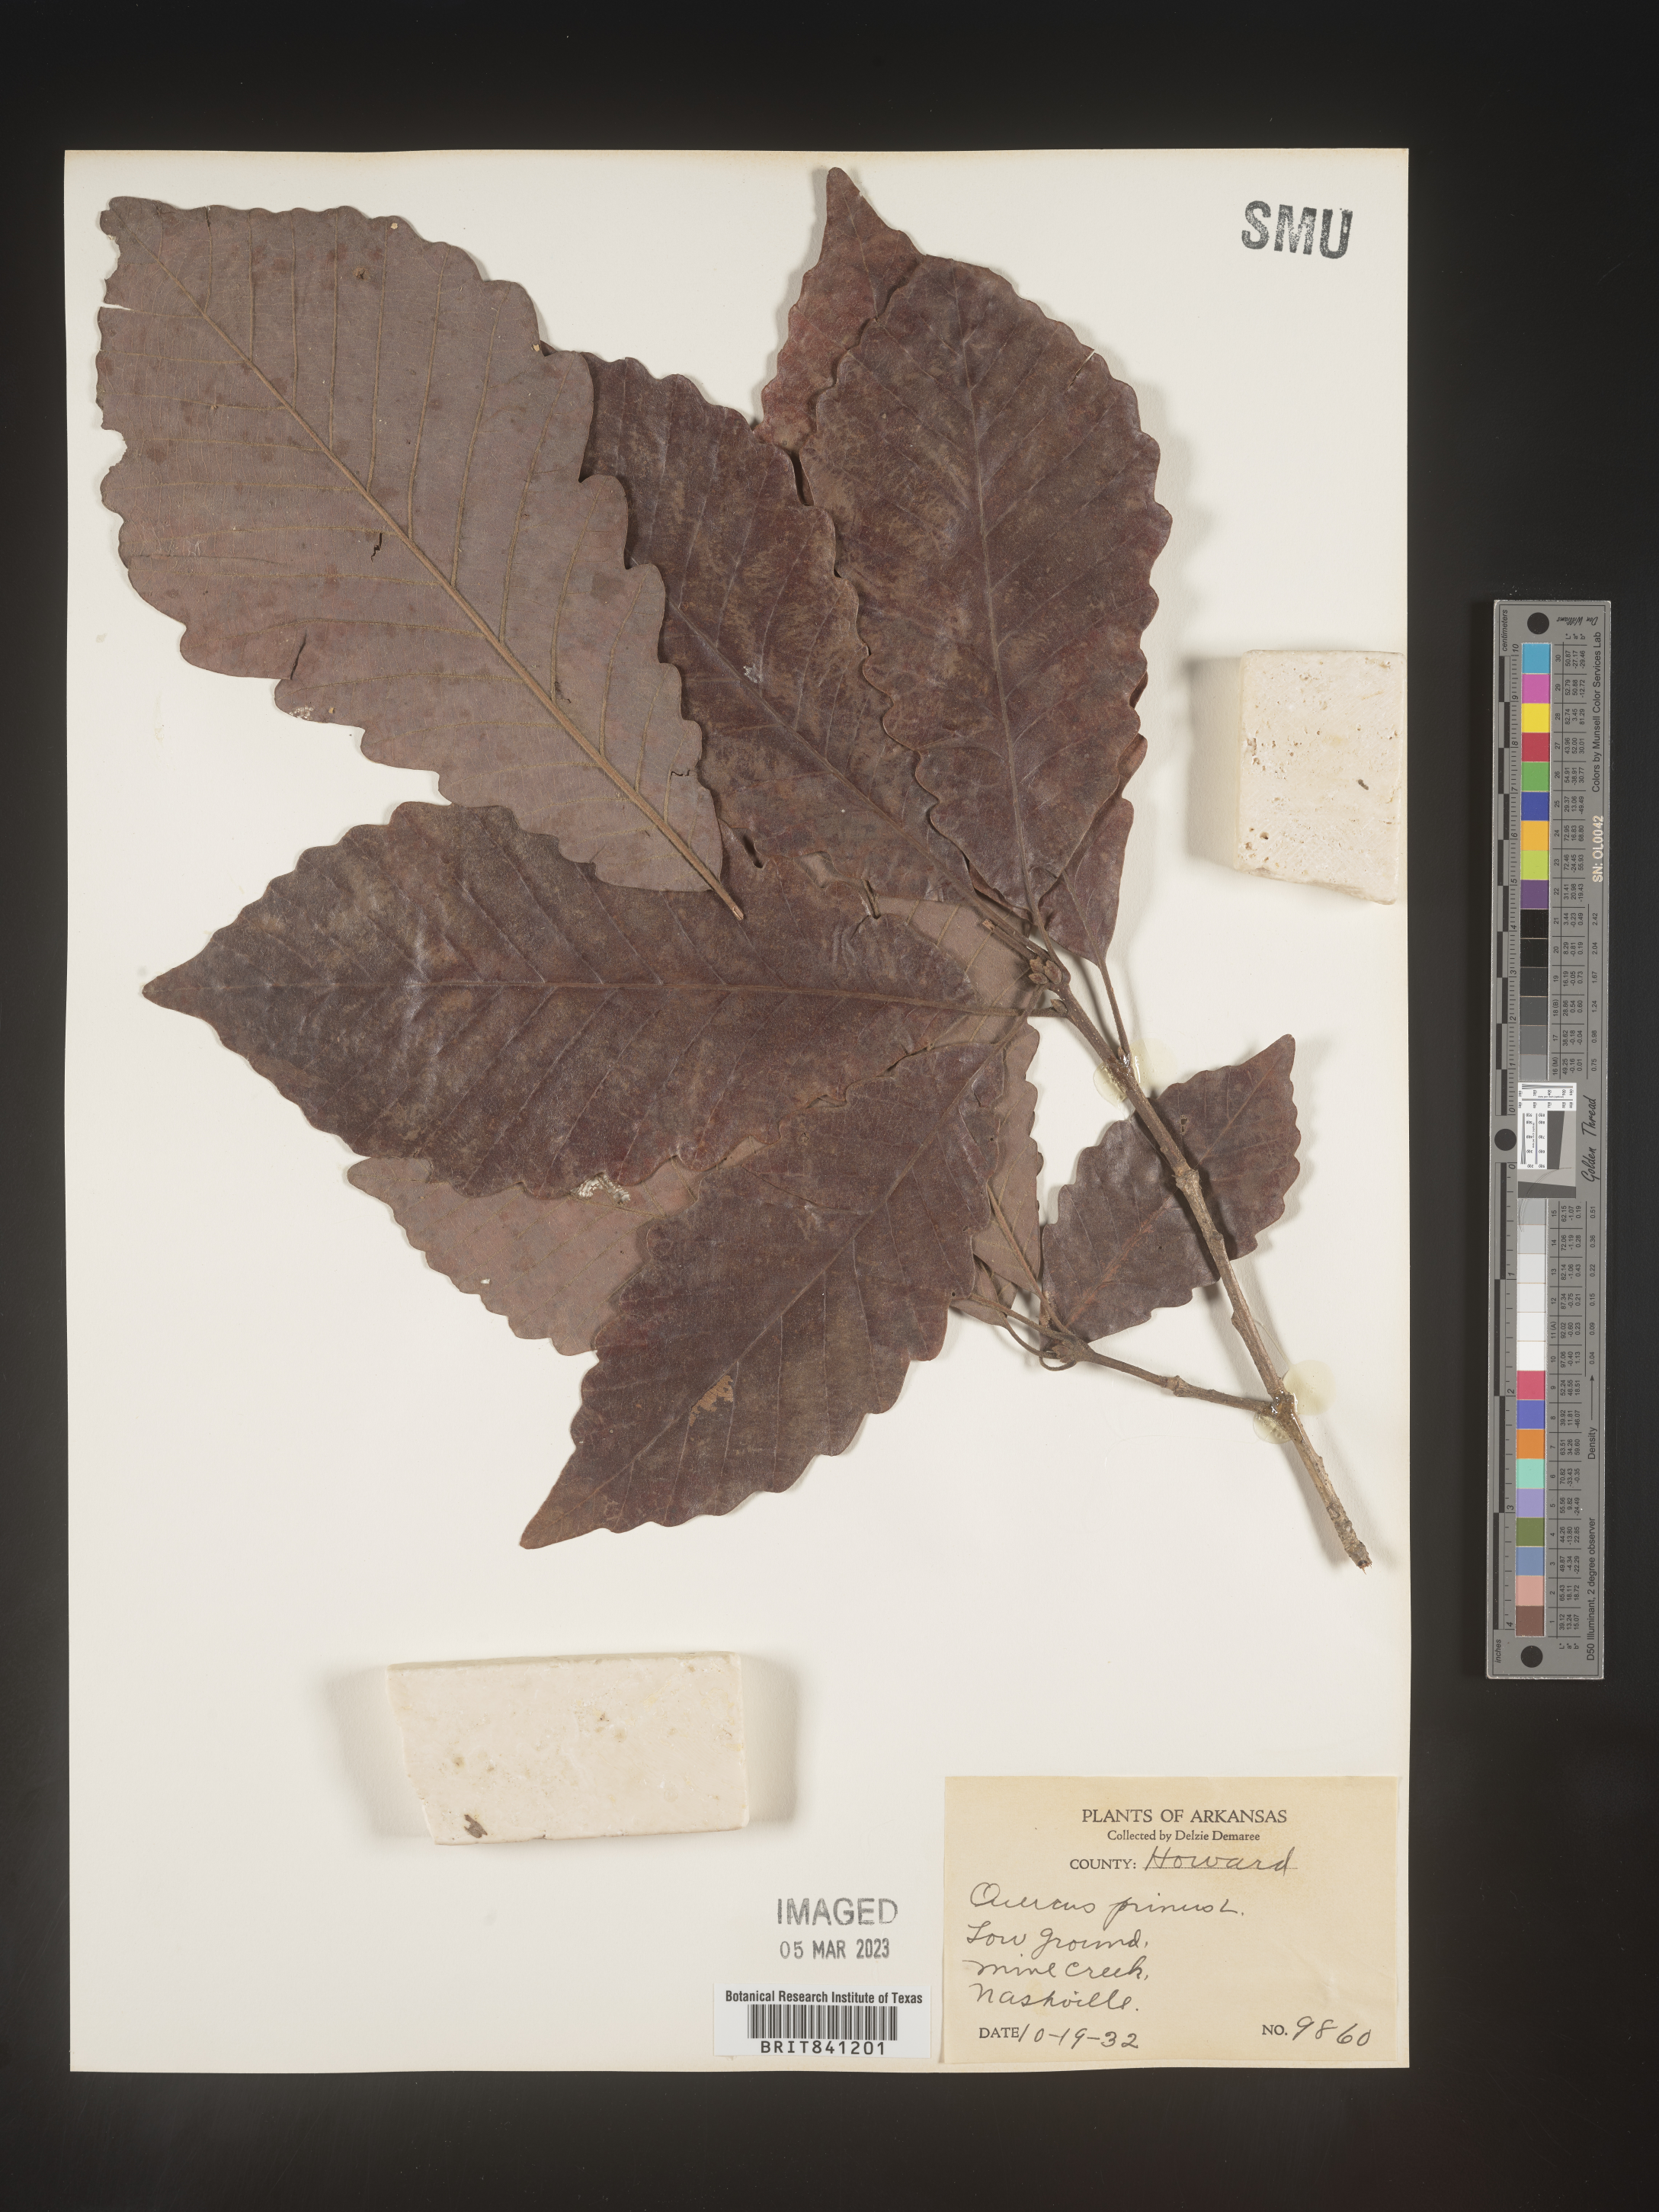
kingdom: Plantae
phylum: Tracheophyta
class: Magnoliopsida
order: Fagales
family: Fagaceae
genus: Quercus
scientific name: Quercus michauxii
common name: Swamp chestnut oak
